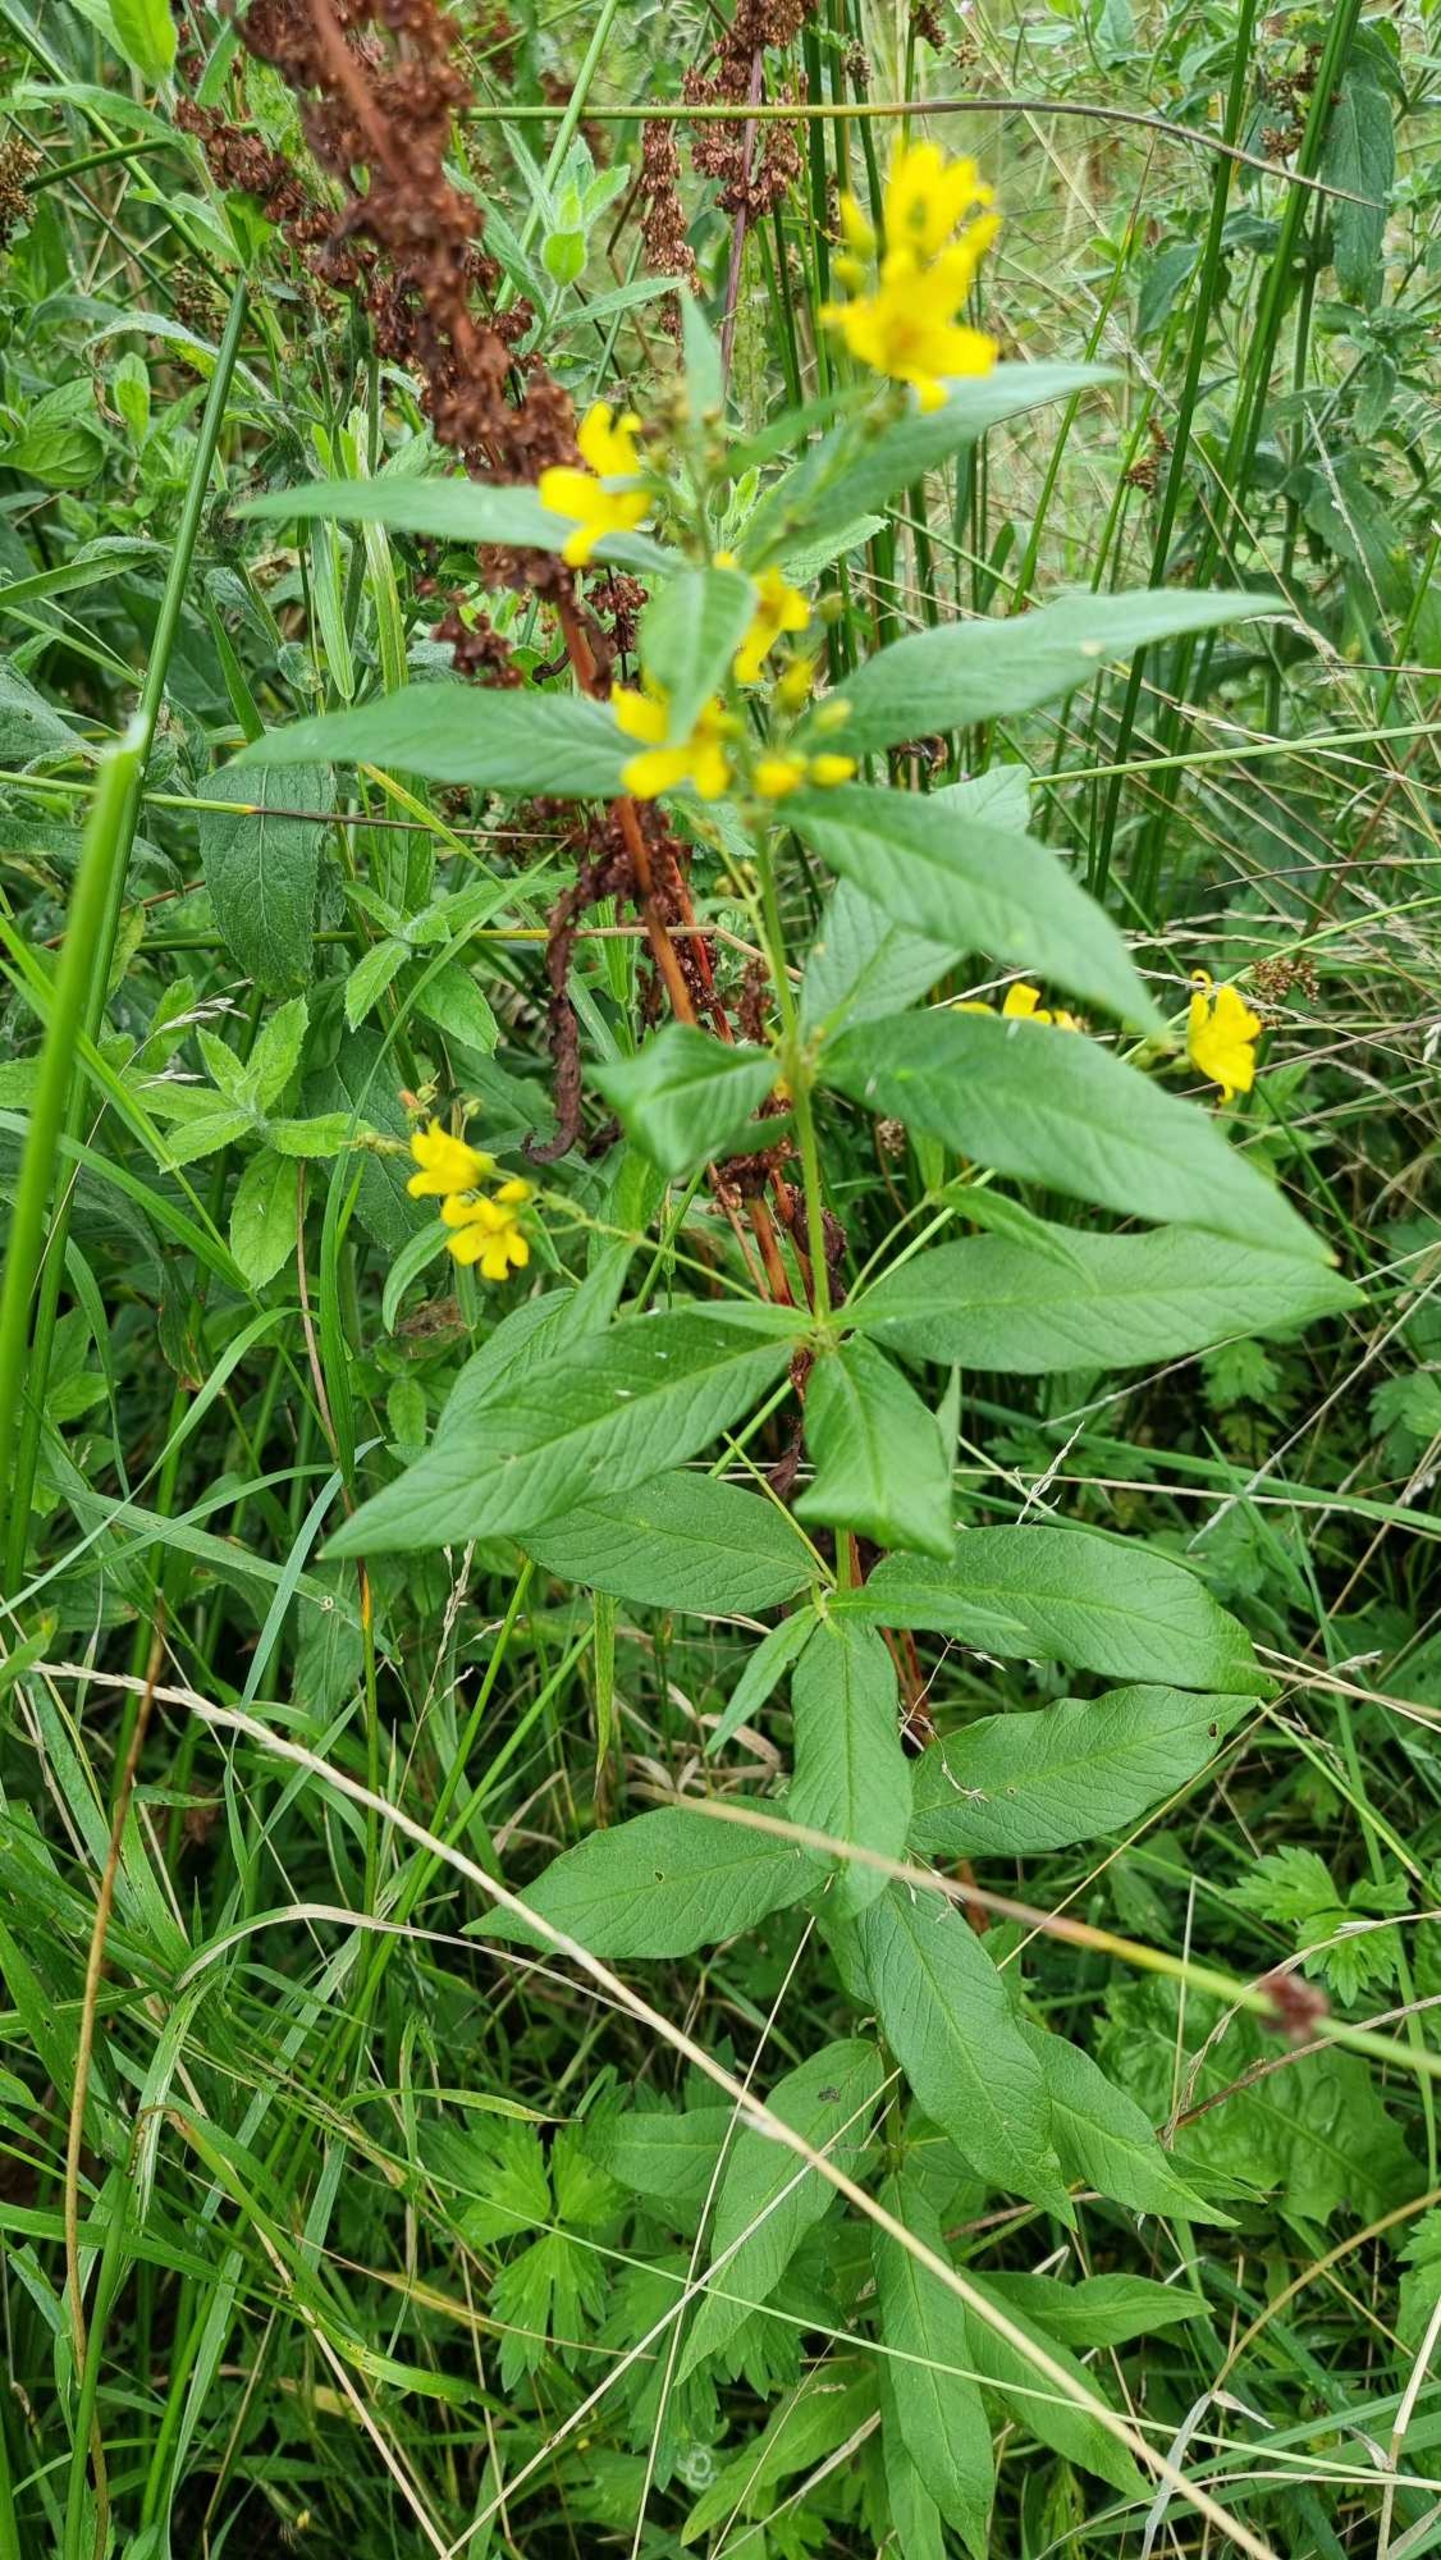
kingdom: Plantae
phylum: Tracheophyta
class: Magnoliopsida
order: Ericales
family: Primulaceae
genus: Lysimachia
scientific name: Lysimachia vulgaris
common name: Almindelig fredløs
